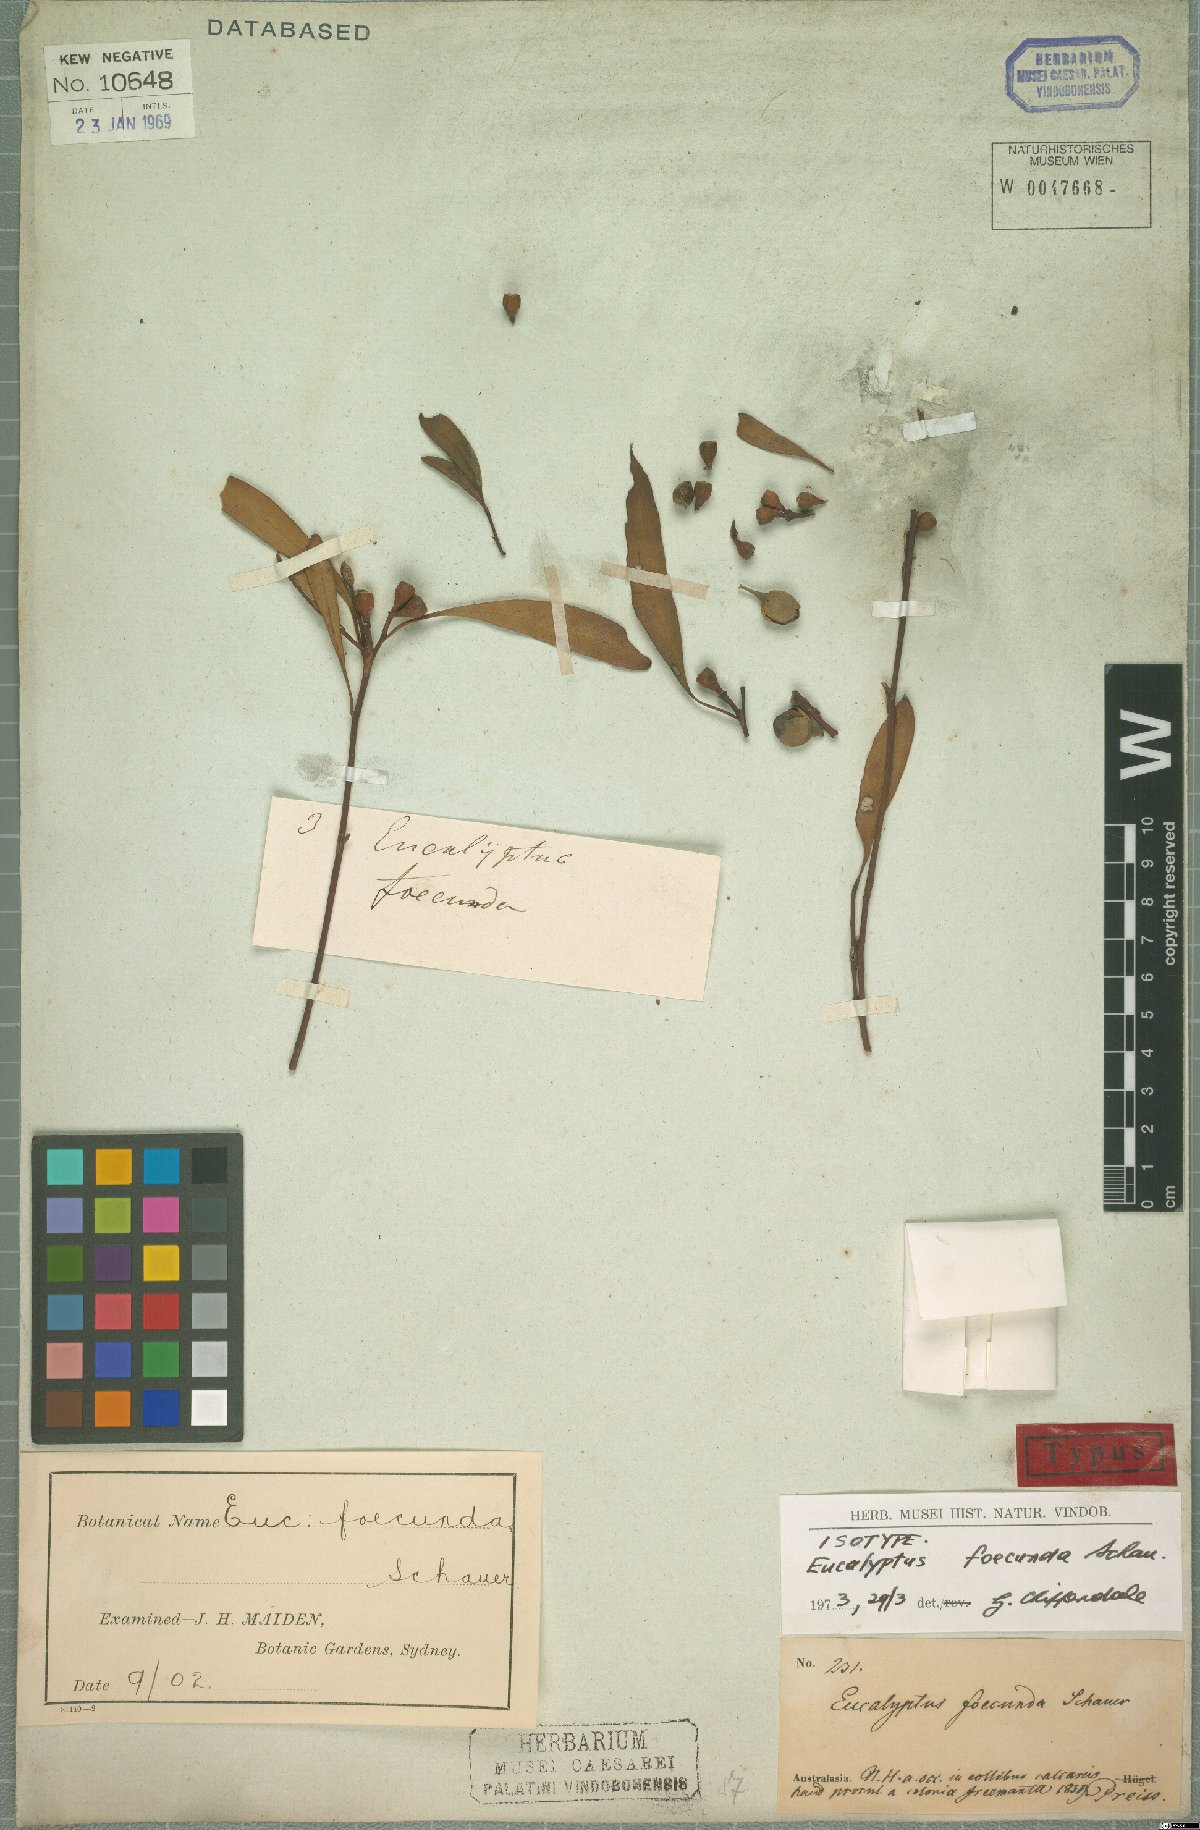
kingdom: Plantae
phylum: Tracheophyta
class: Magnoliopsida
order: Myrtales
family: Myrtaceae
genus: Eucalyptus
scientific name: Eucalyptus foecunda
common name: Freemantle mallee
